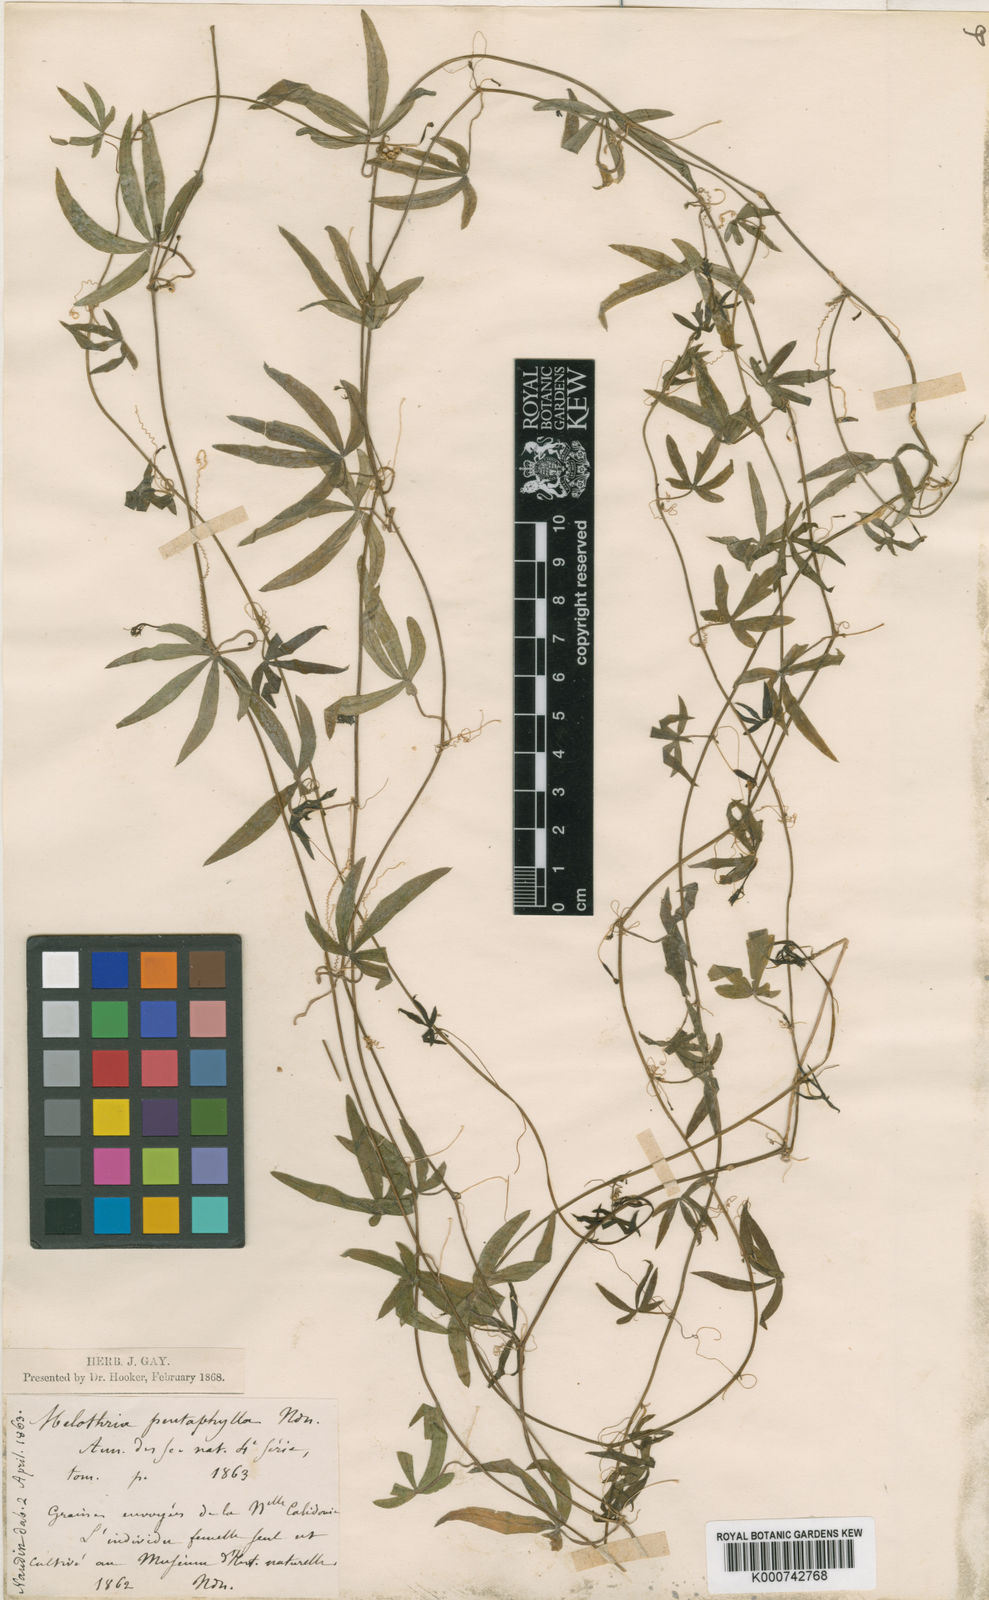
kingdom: Plantae
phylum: Tracheophyta
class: Magnoliopsida
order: Cucurbitales
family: Cucurbitaceae
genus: Zehneria
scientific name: Zehneria
